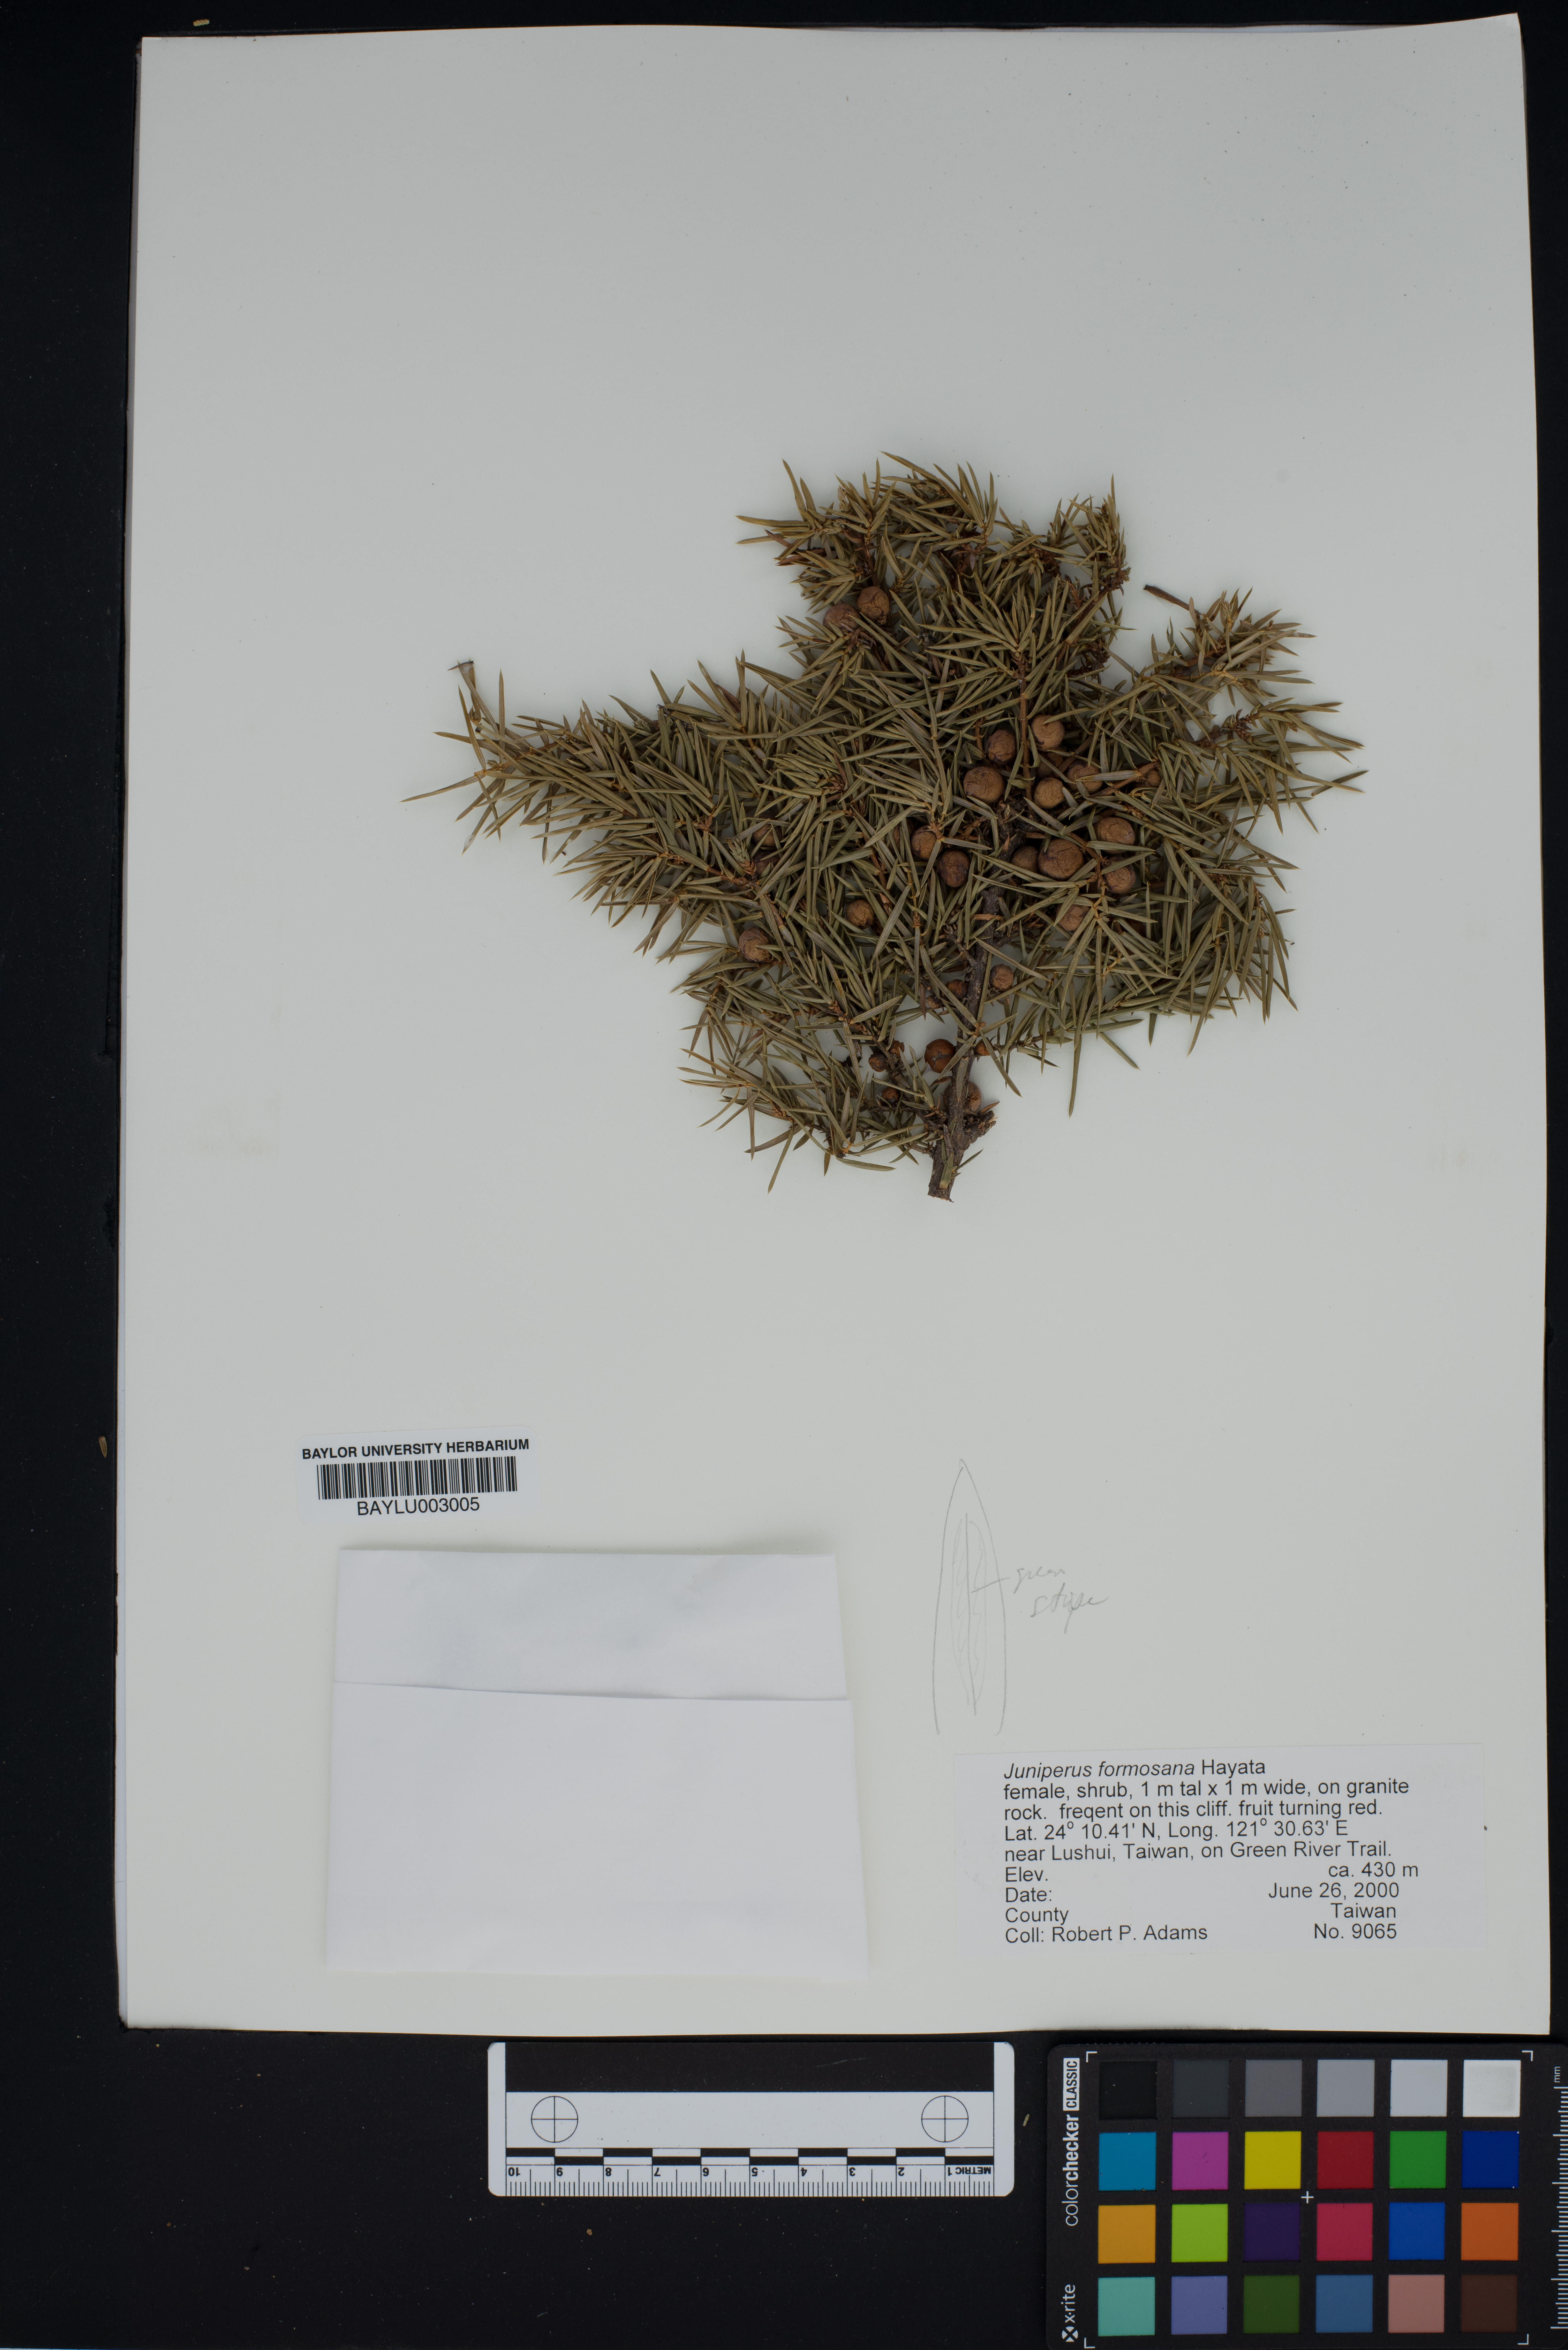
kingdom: Plantae
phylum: Tracheophyta
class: Pinopsida
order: Pinales
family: Cupressaceae
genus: Juniperus
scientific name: Juniperus formosana
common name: Formosan juniper
